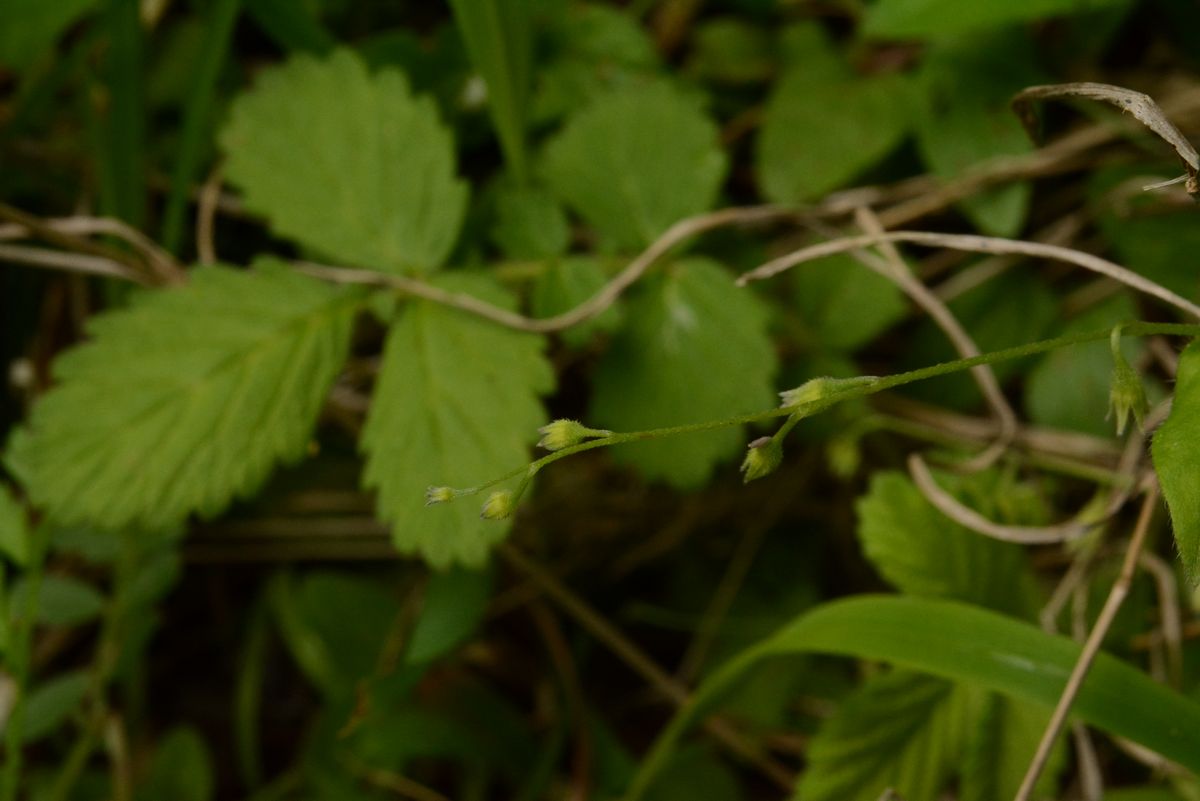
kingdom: Plantae
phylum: Tracheophyta
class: Magnoliopsida
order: Boraginales
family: Boraginaceae
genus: Myosotis
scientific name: Myosotis arvensis
